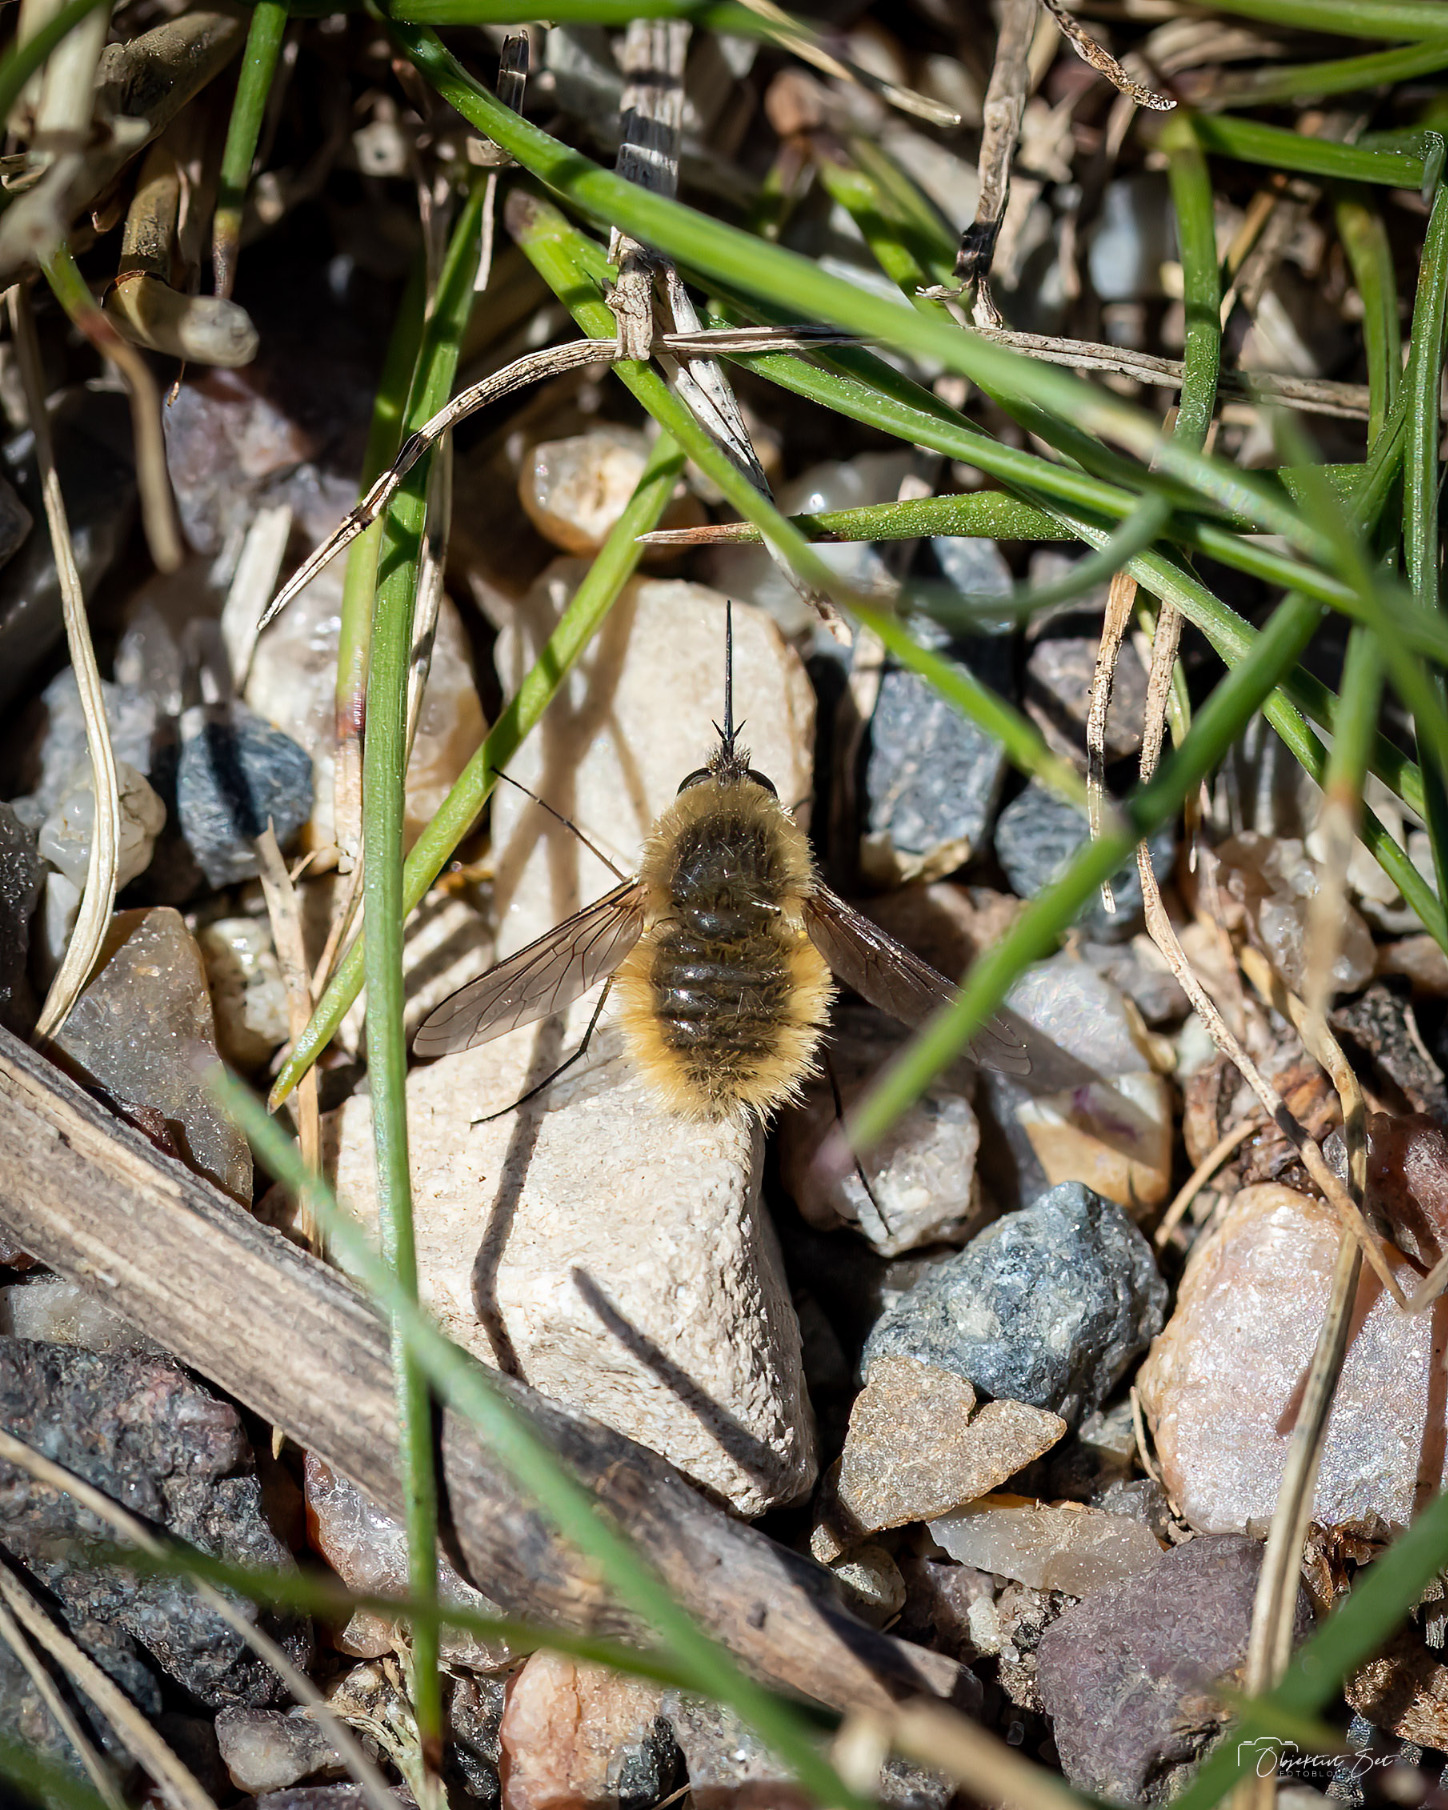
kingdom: Animalia
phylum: Arthropoda
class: Insecta
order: Diptera
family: Bombyliidae
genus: Systoechus
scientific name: Systoechus ctenopterus
